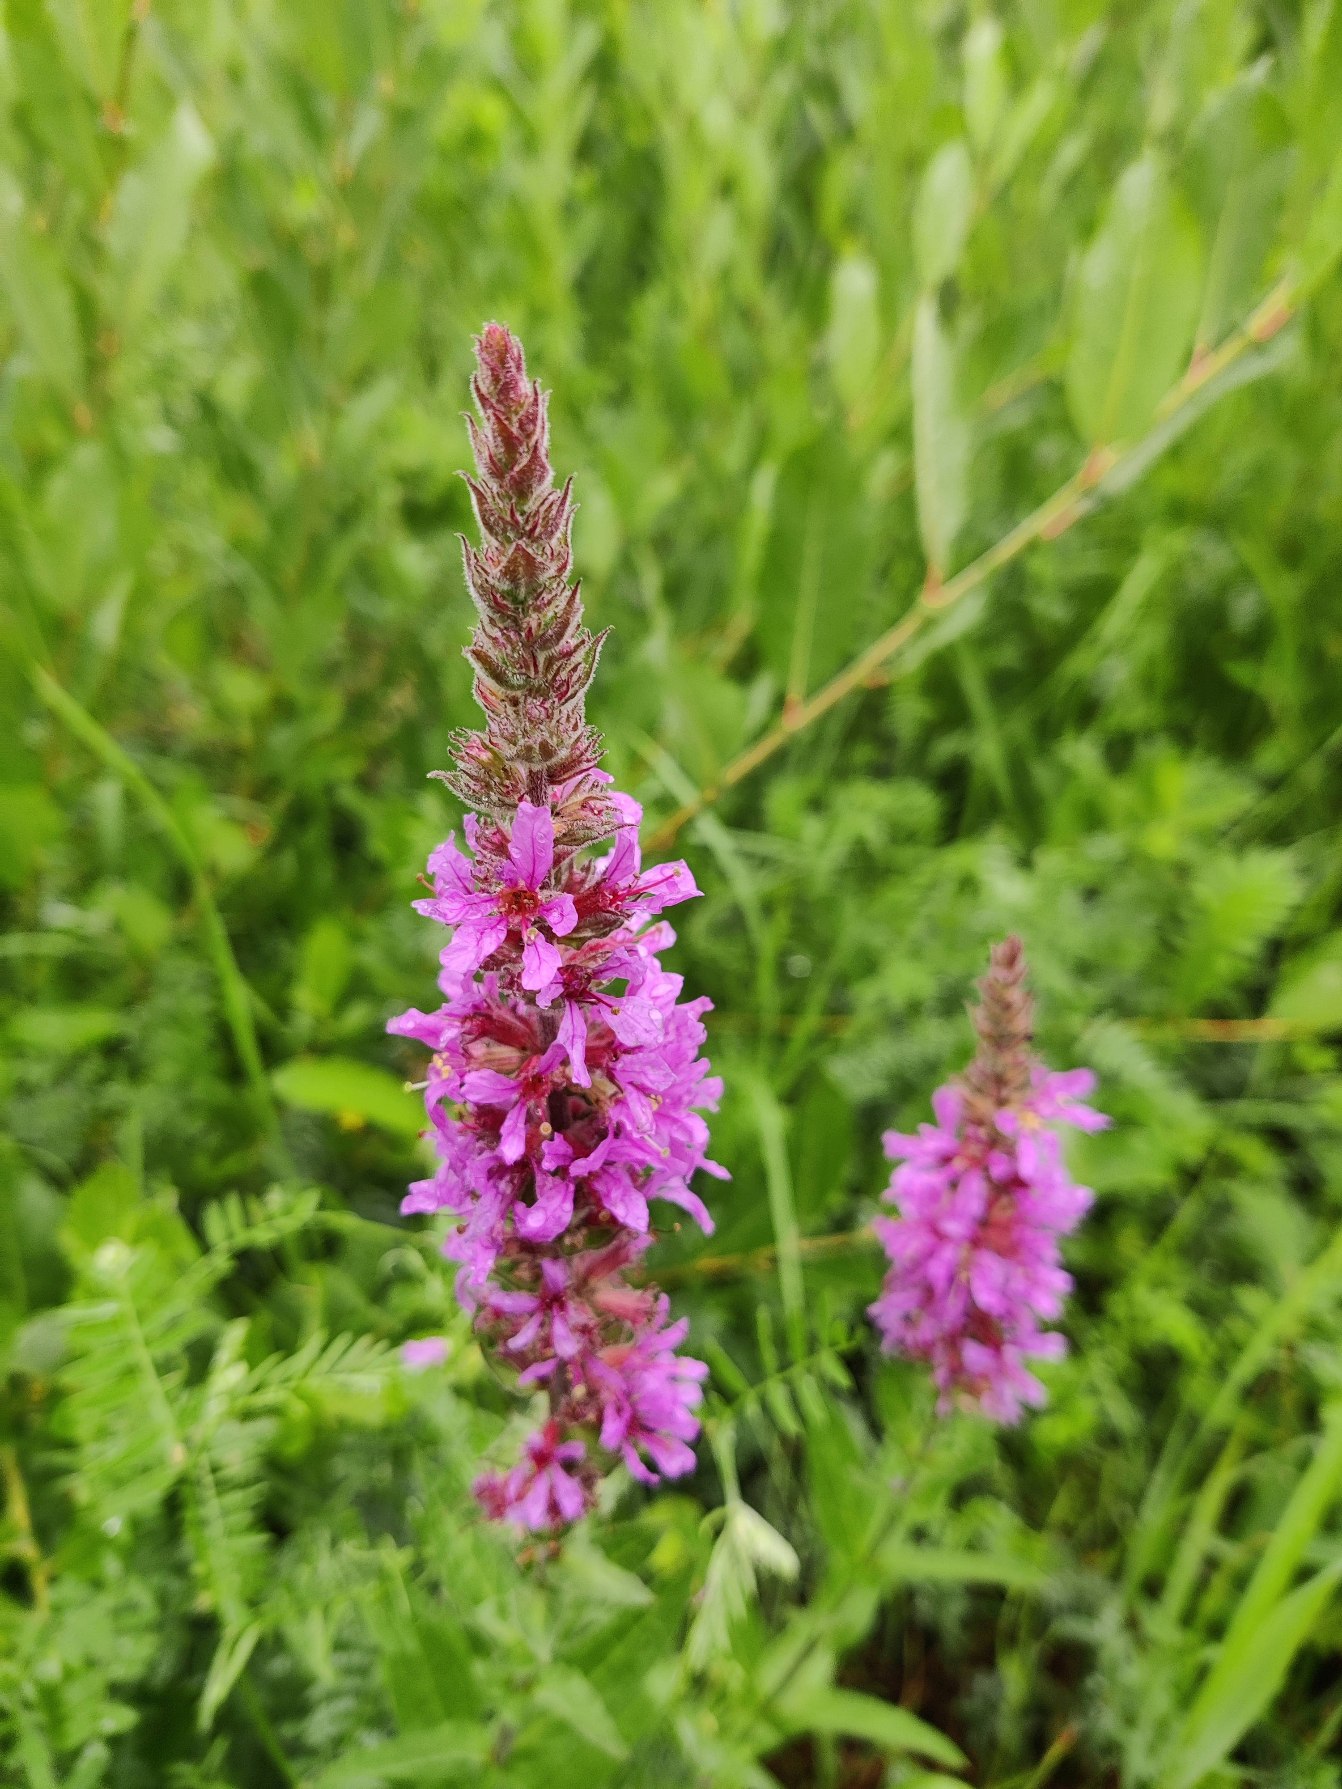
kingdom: Plantae
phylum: Tracheophyta
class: Magnoliopsida
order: Myrtales
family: Lythraceae
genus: Lythrum
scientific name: Lythrum salicaria
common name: Kattehale
